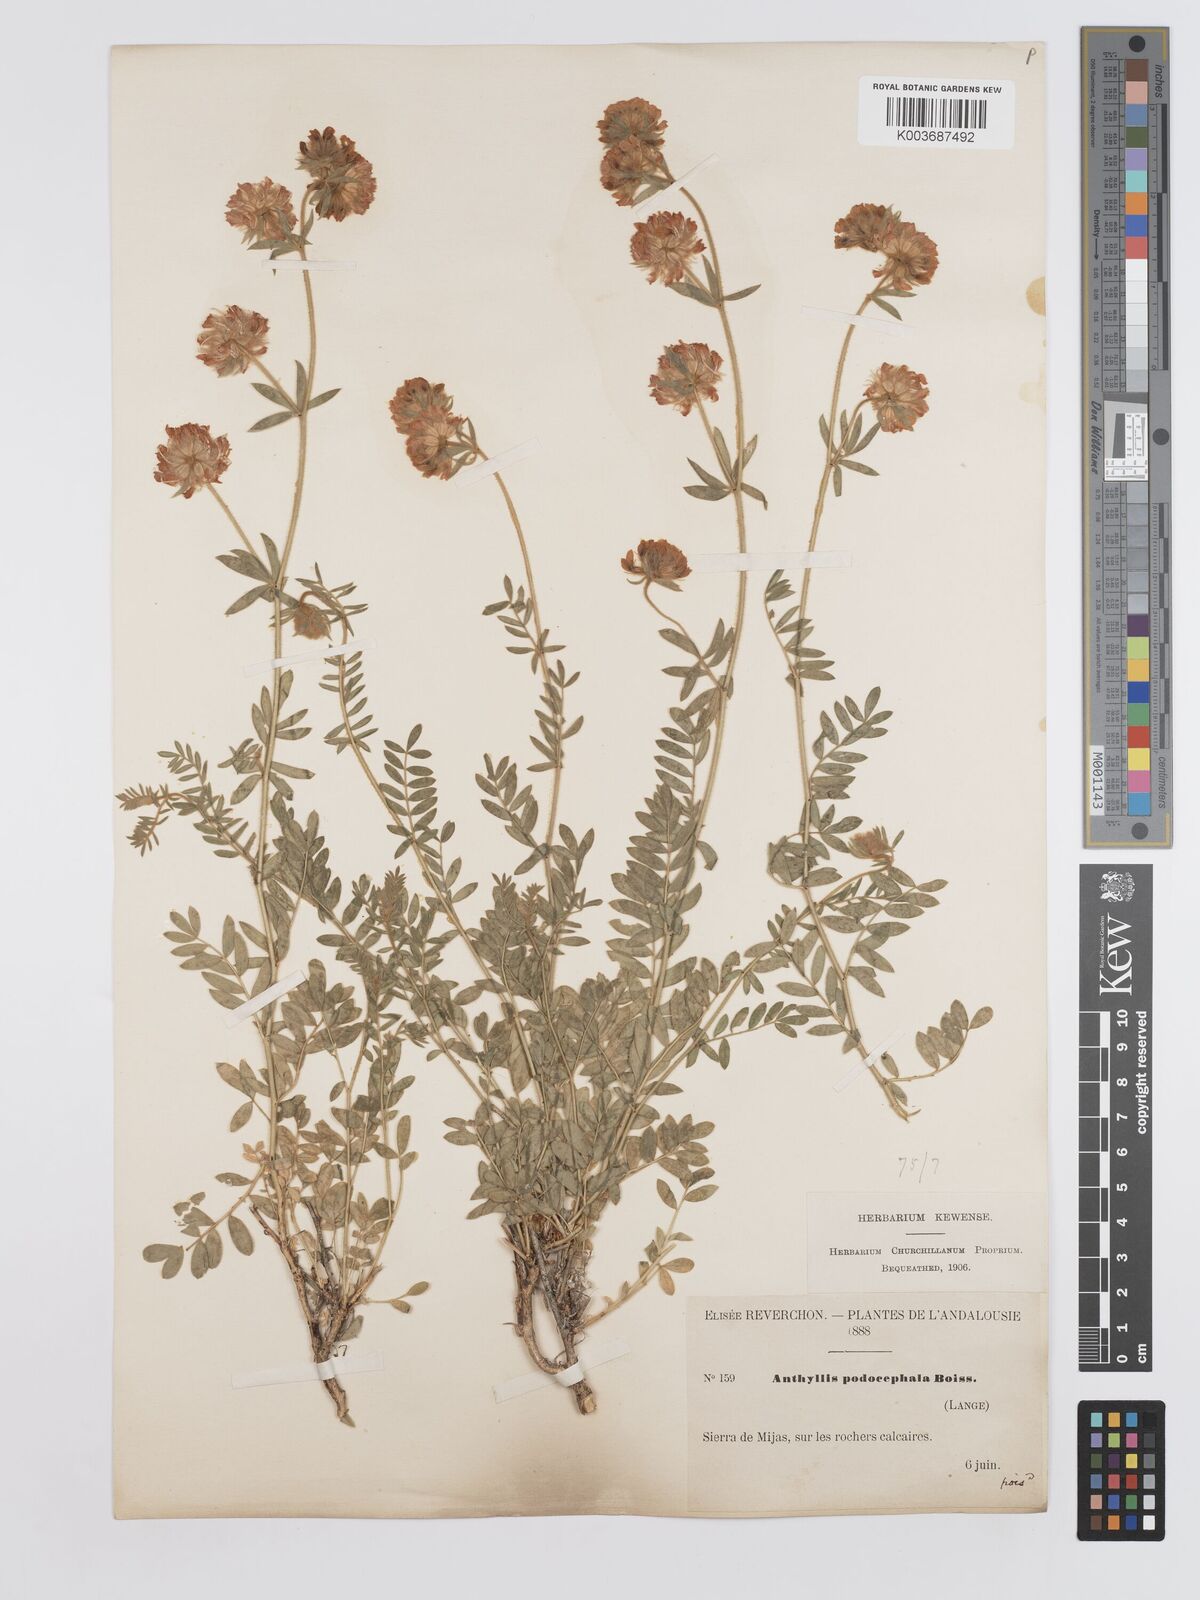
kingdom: Plantae
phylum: Tracheophyta
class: Magnoliopsida
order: Fabales
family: Fabaceae
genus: Anthyllis
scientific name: Anthyllis polycephala
